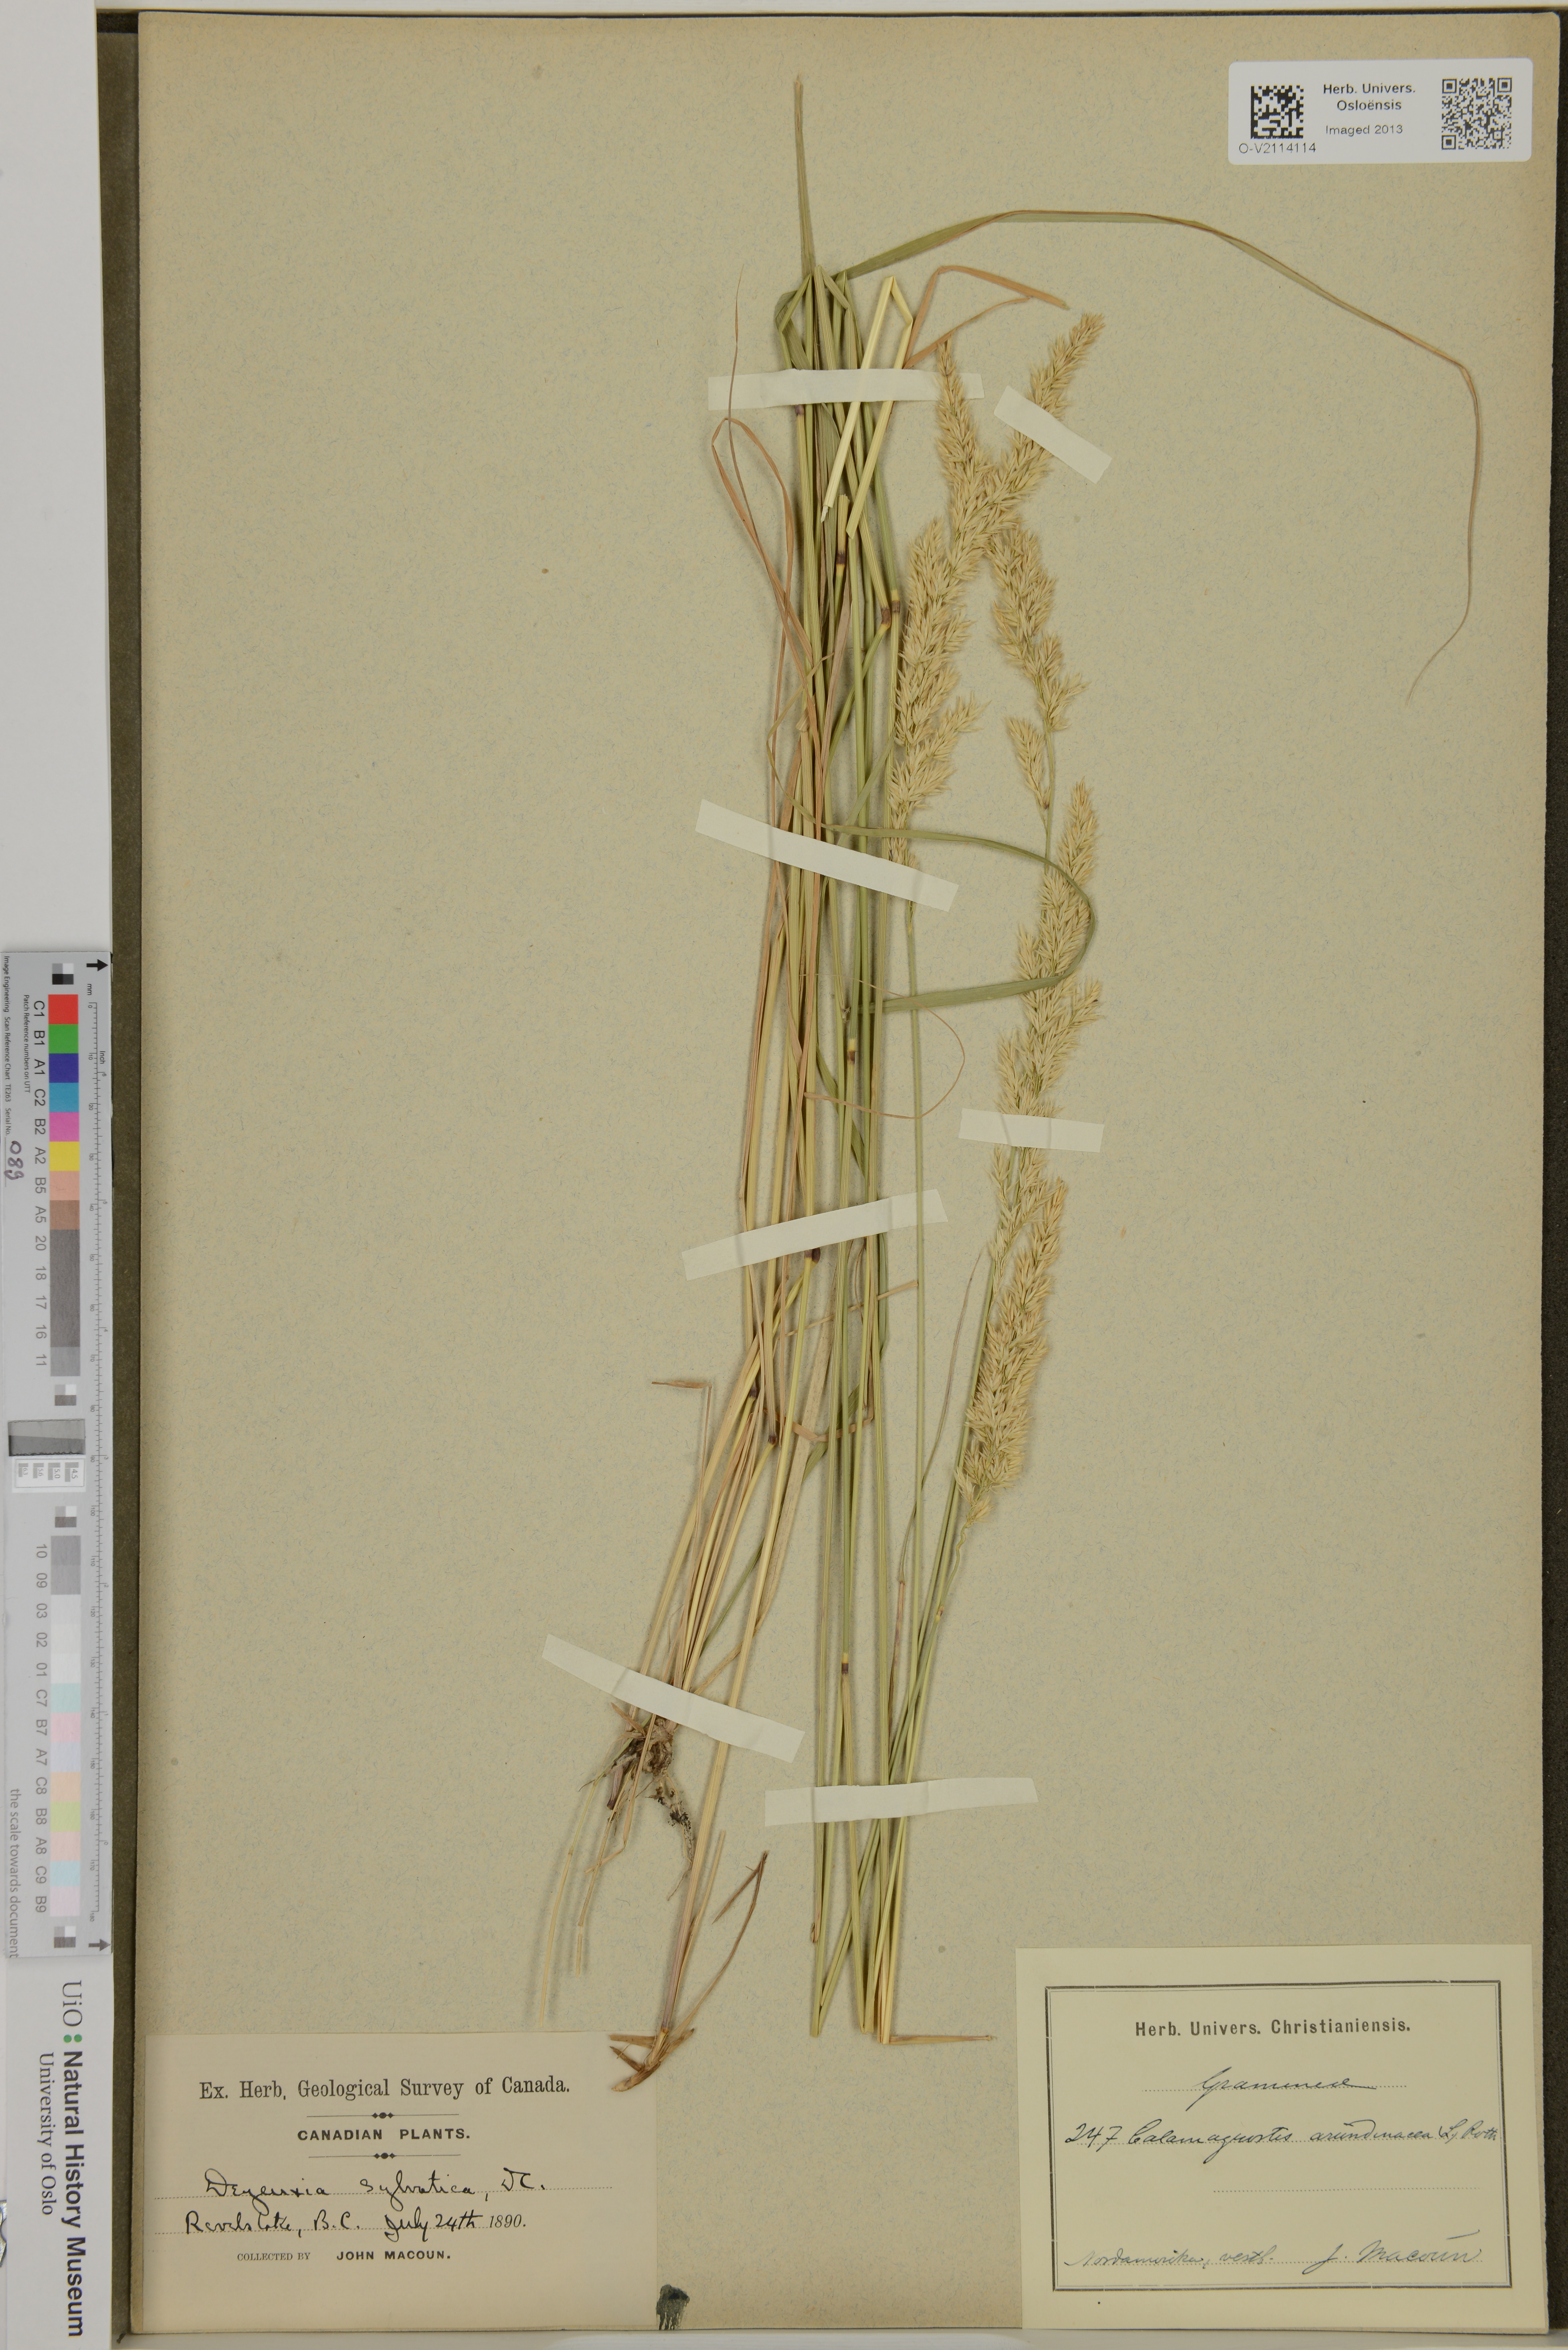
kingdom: Plantae
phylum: Tracheophyta
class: Liliopsida
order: Poales
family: Poaceae
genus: Calamagrostis
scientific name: Calamagrostis arundinacea
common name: Metskastik
